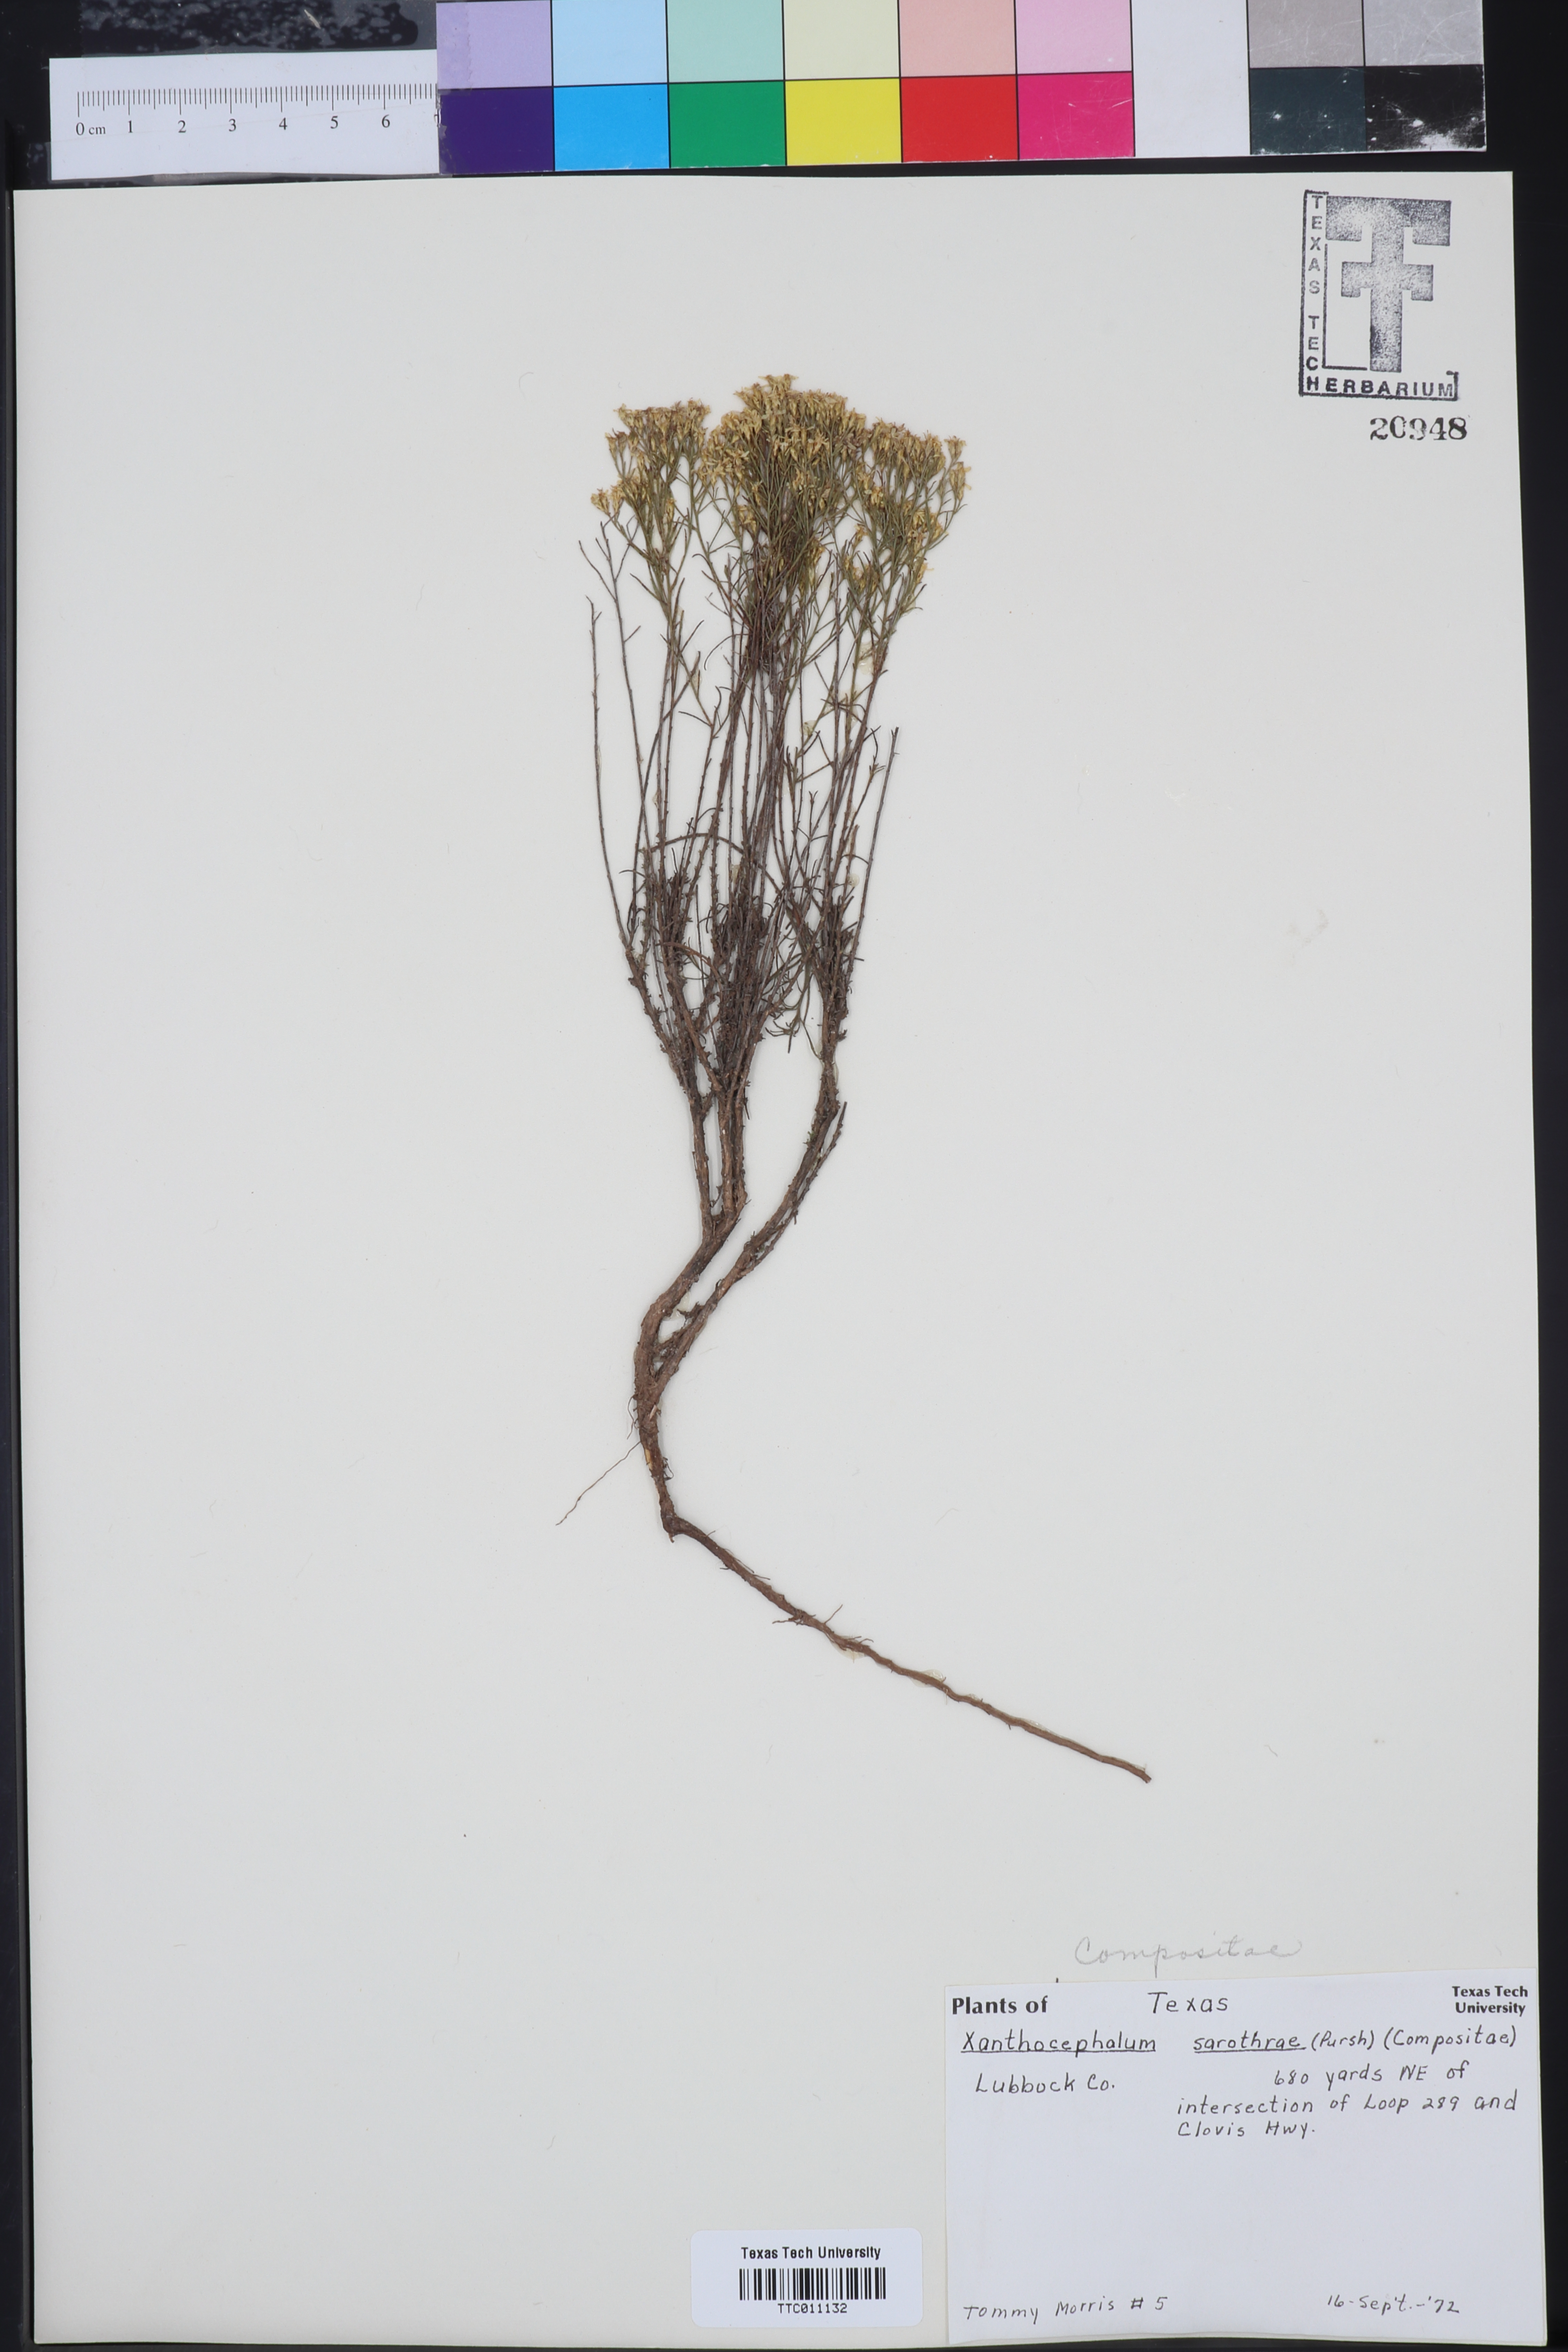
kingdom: Plantae
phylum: Tracheophyta
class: Magnoliopsida
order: Asterales
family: Asteraceae
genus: Gutierrezia
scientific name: Gutierrezia sarothrae
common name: Broom snakeweed
